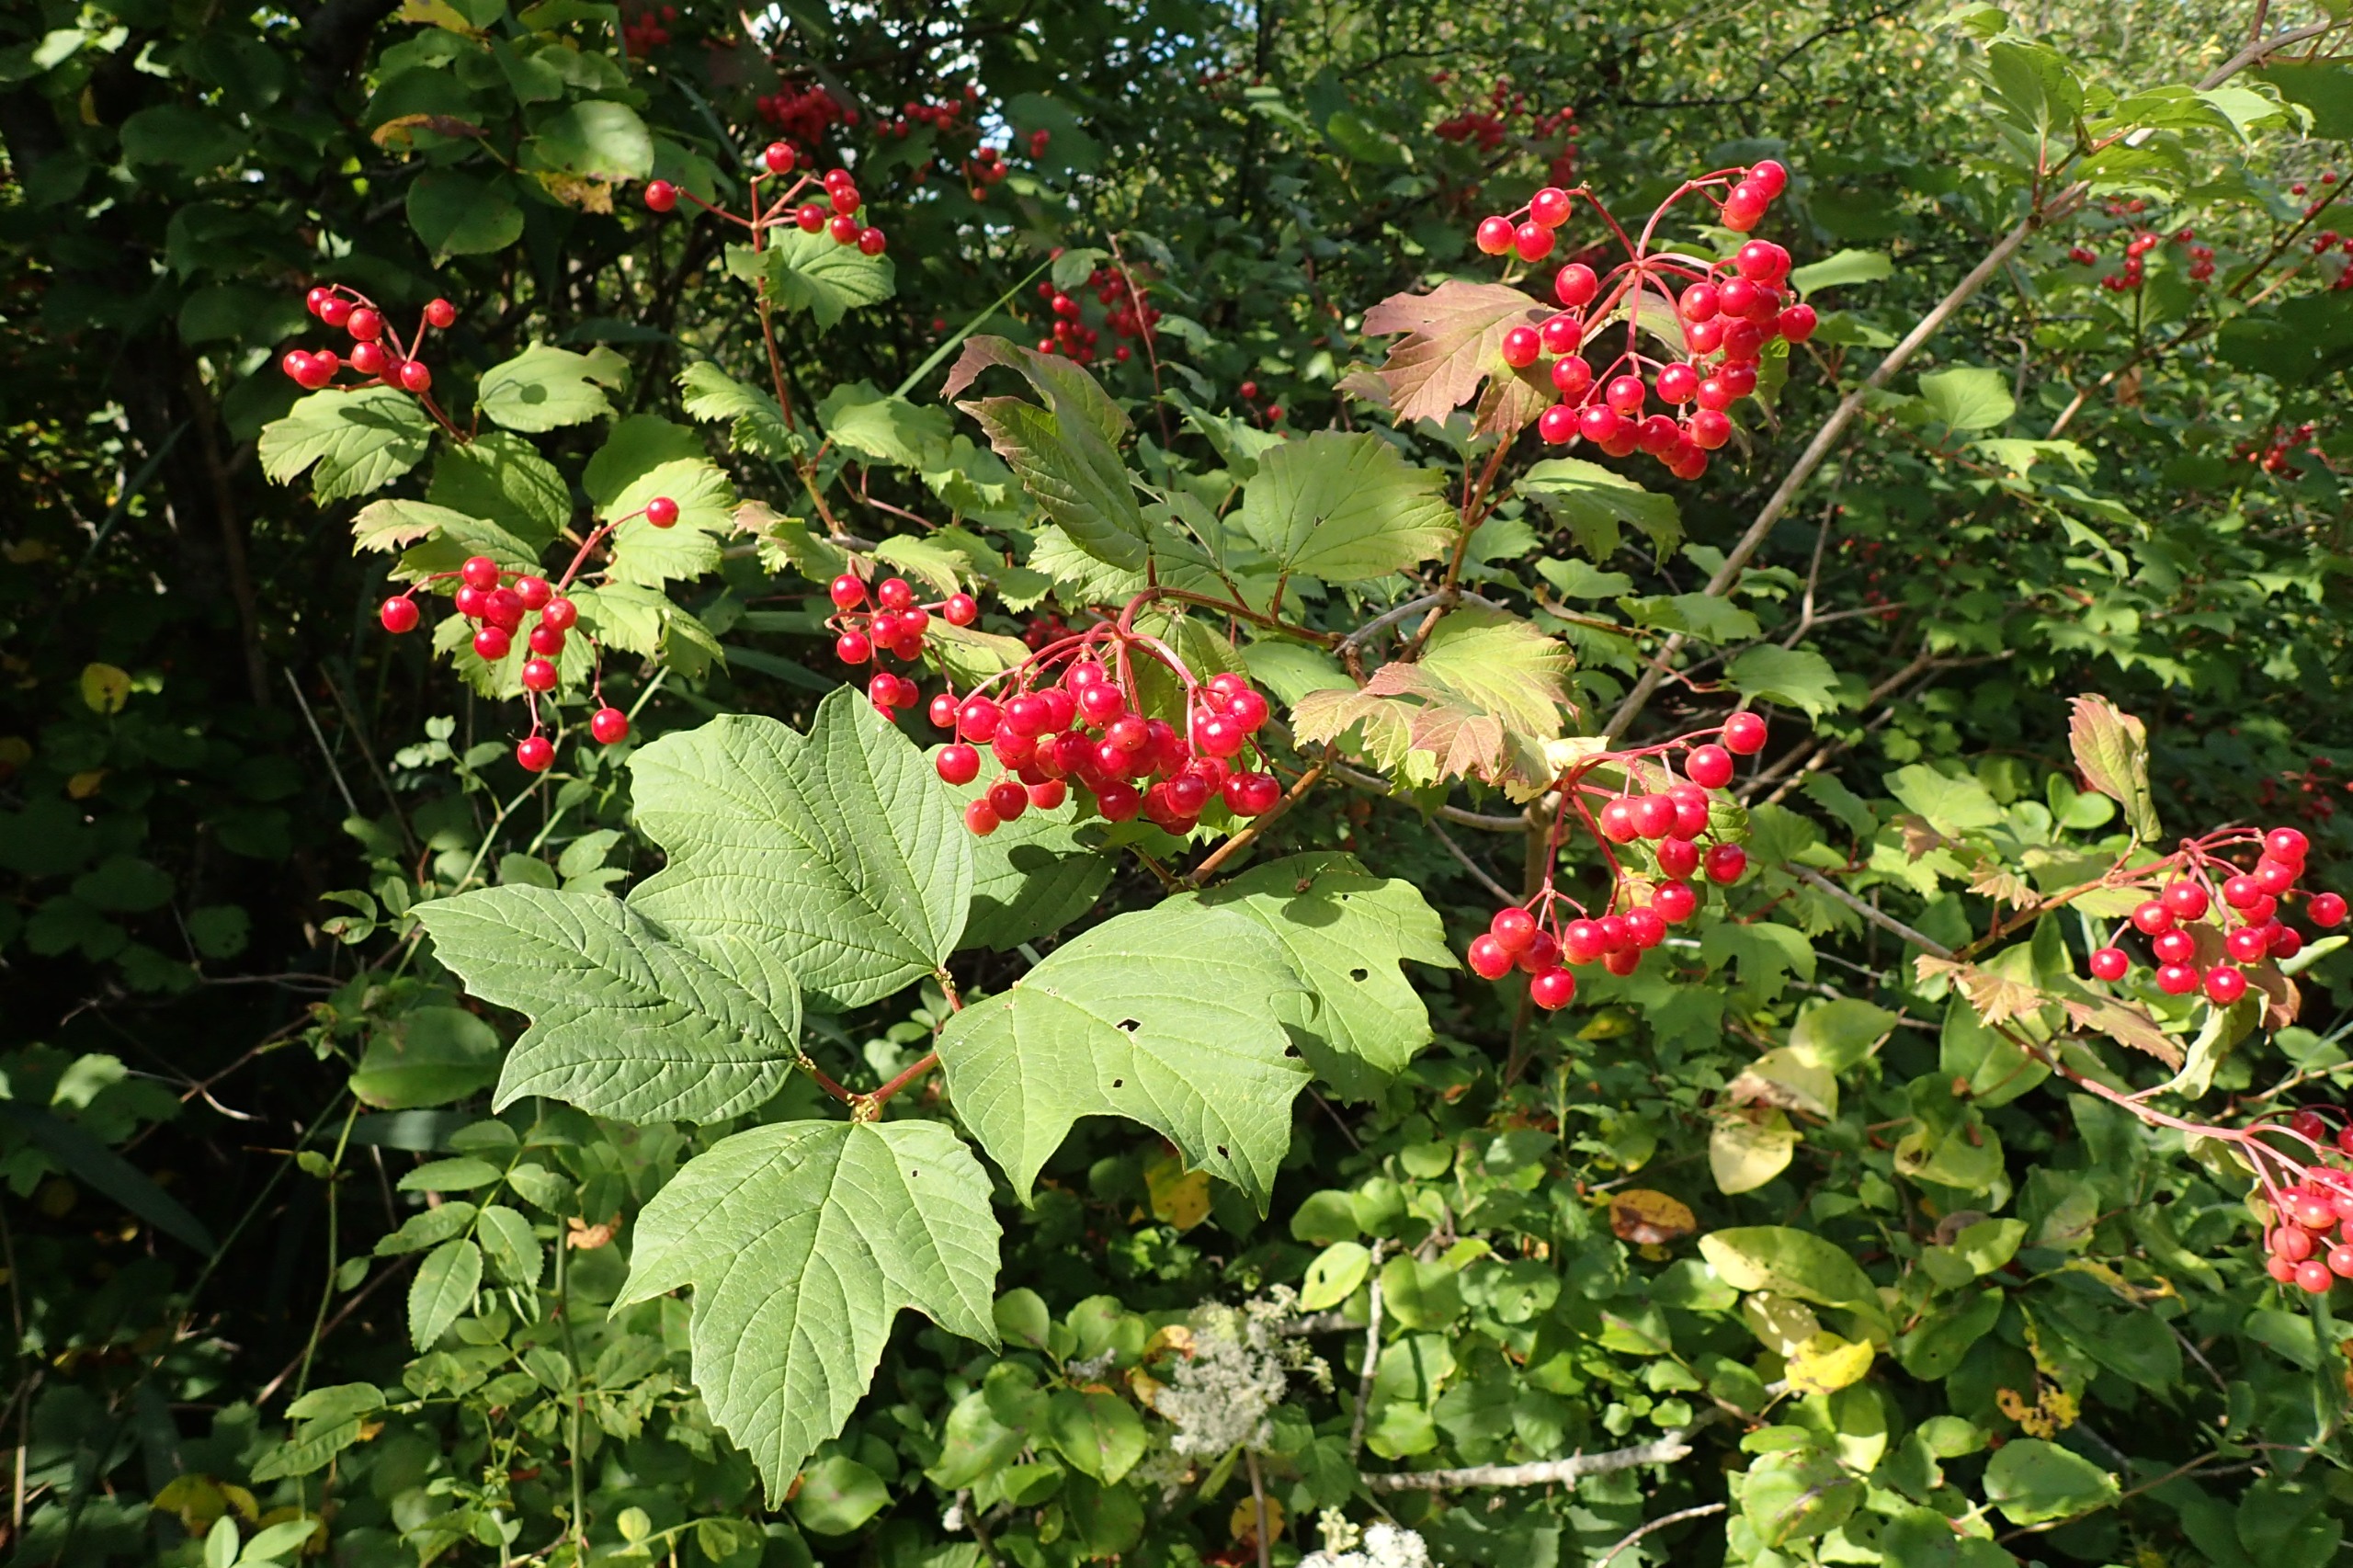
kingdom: Plantae
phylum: Tracheophyta
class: Magnoliopsida
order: Dipsacales
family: Viburnaceae
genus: Viburnum
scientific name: Viburnum opulus
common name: Kvalkved
